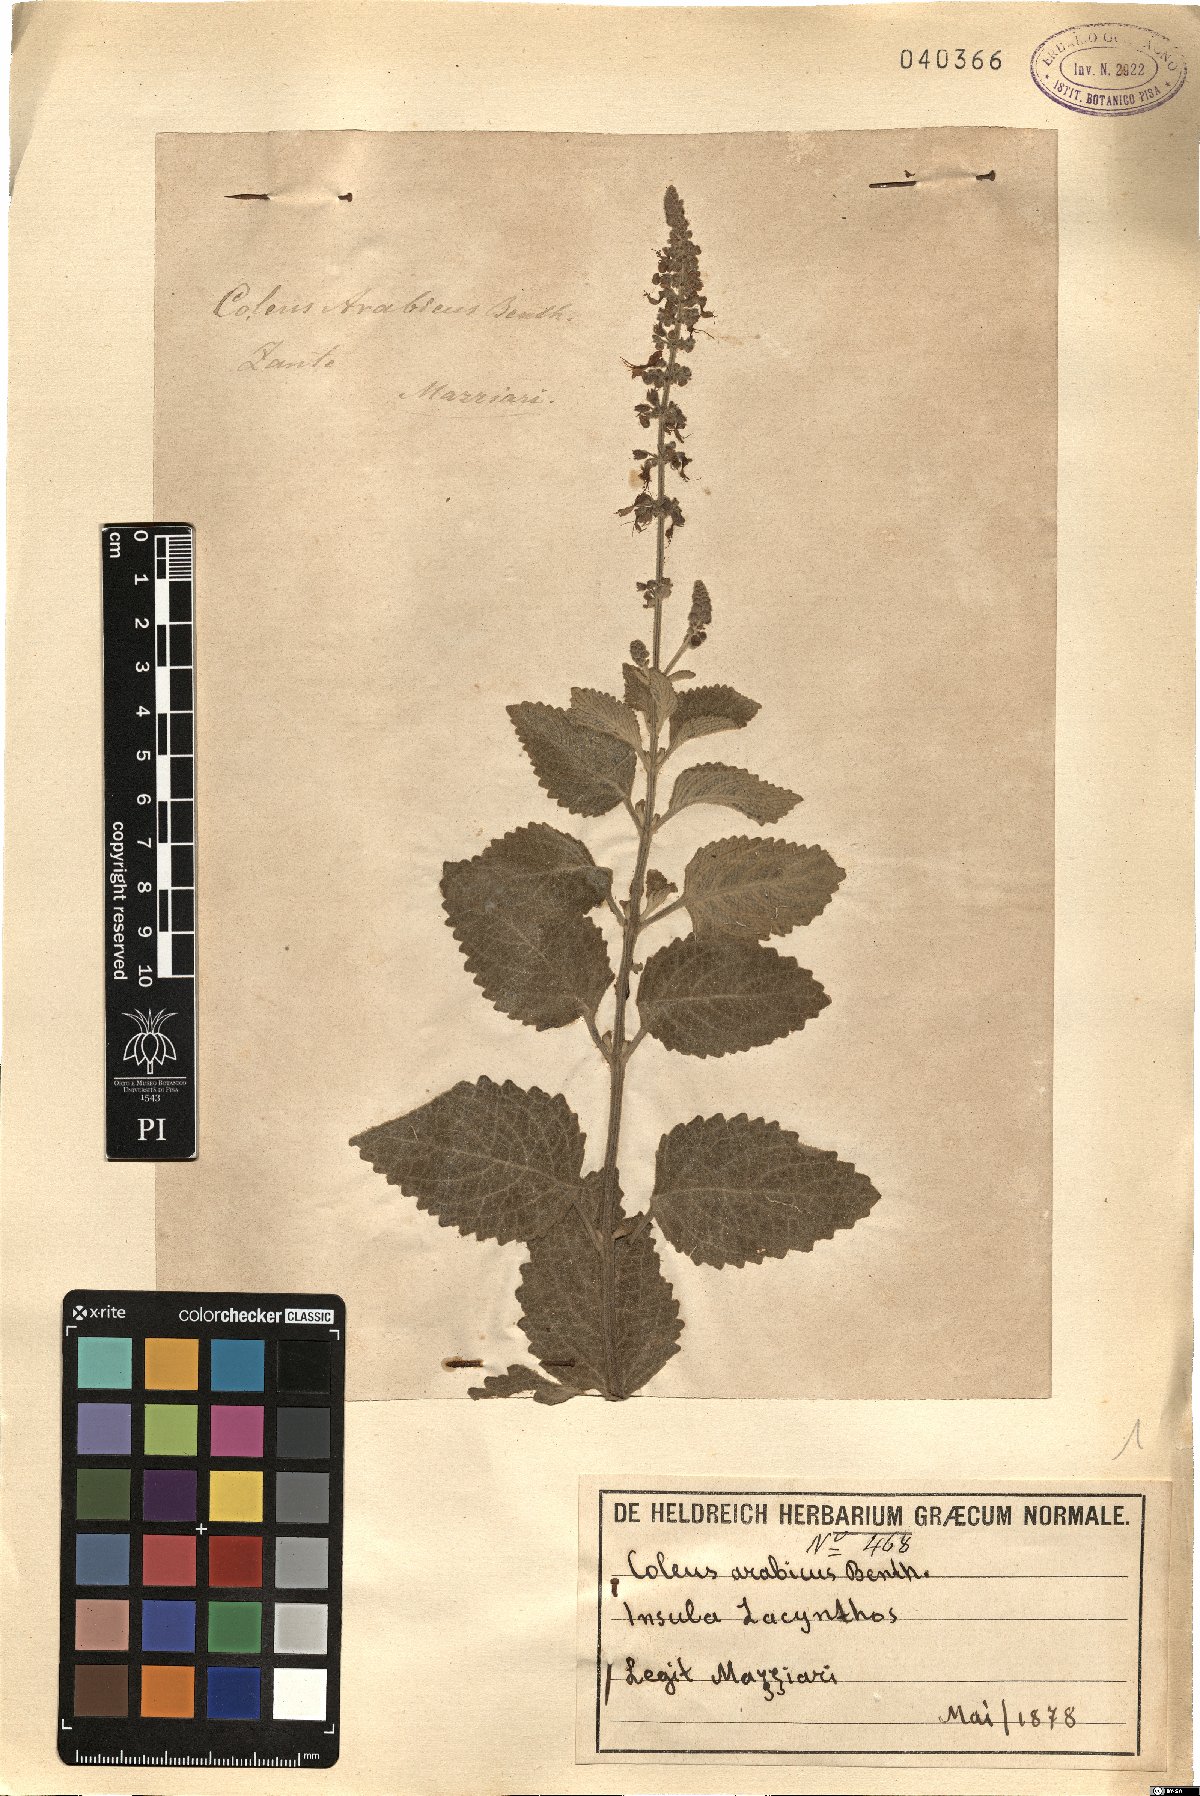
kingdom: Plantae
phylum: Tracheophyta
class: Magnoliopsida
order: Lamiales
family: Lamiaceae
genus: Coleus
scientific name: Coleus arabicus
